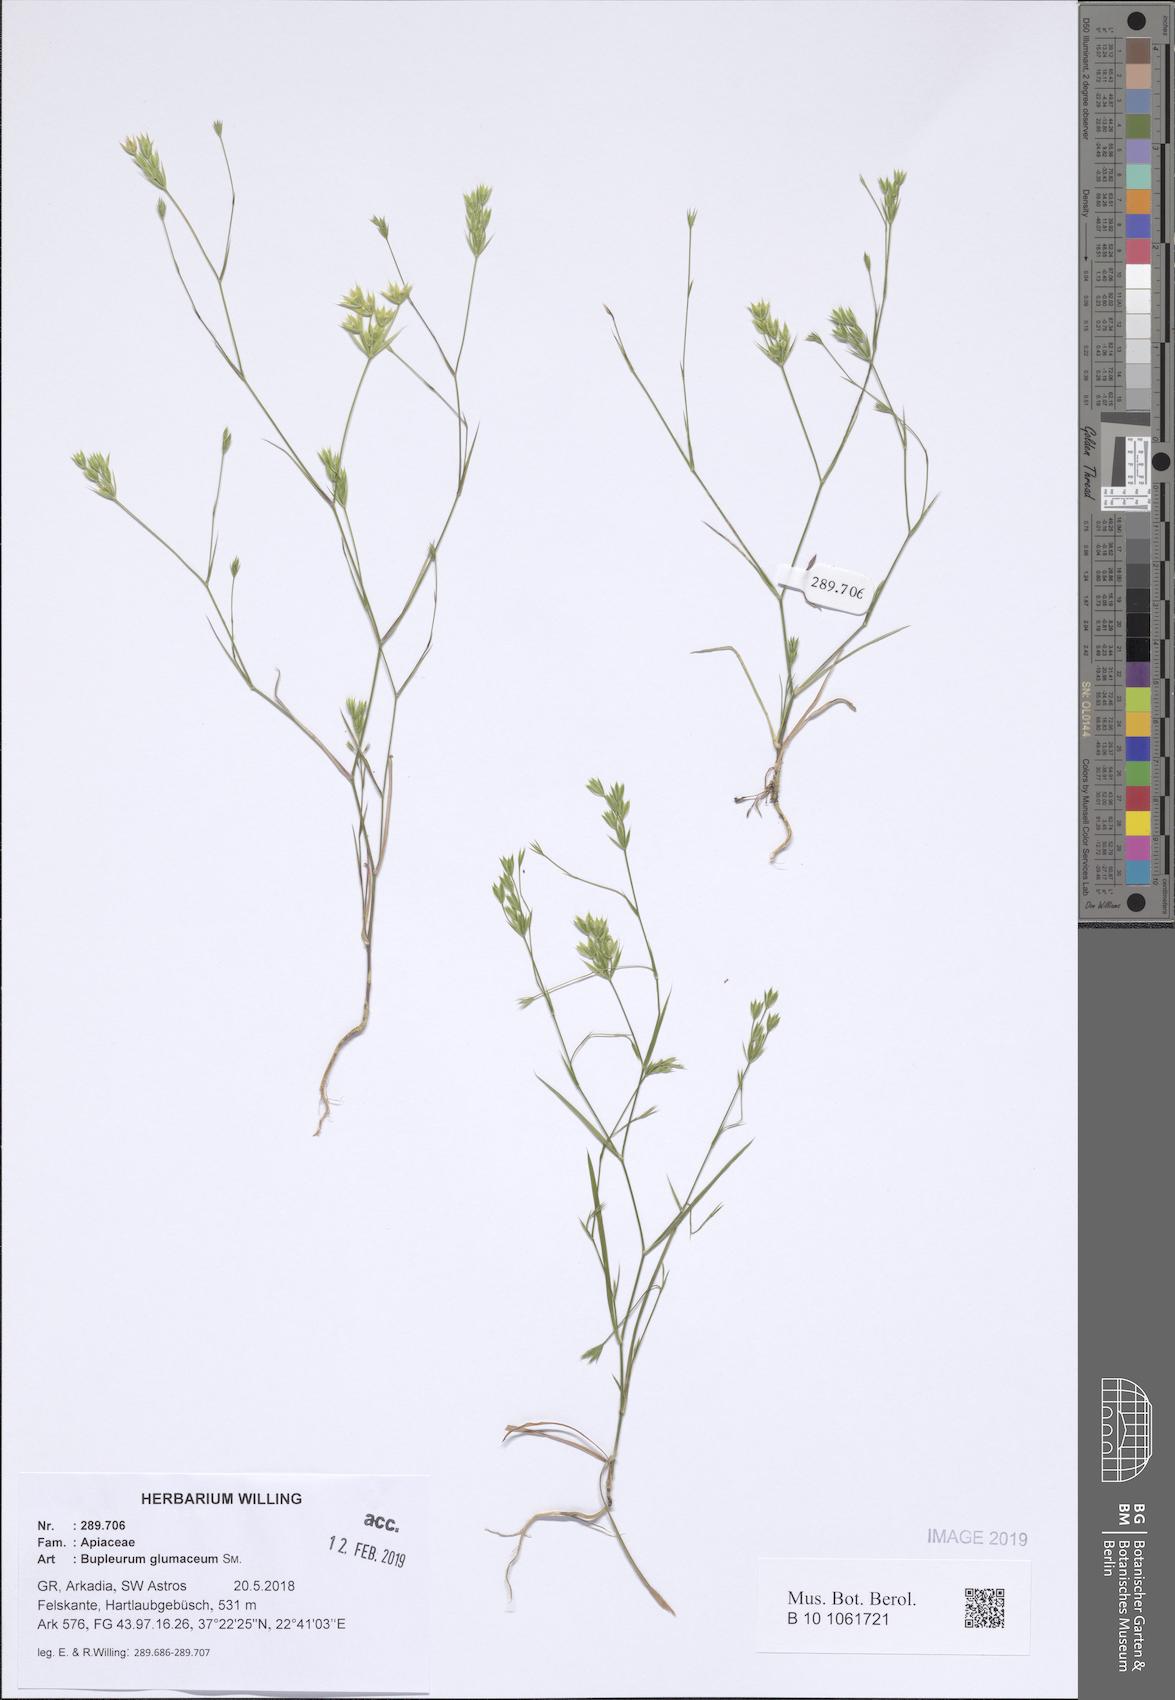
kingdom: Plantae
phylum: Tracheophyta
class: Magnoliopsida
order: Apiales
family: Apiaceae
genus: Bupleurum
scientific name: Bupleurum glumaceum
